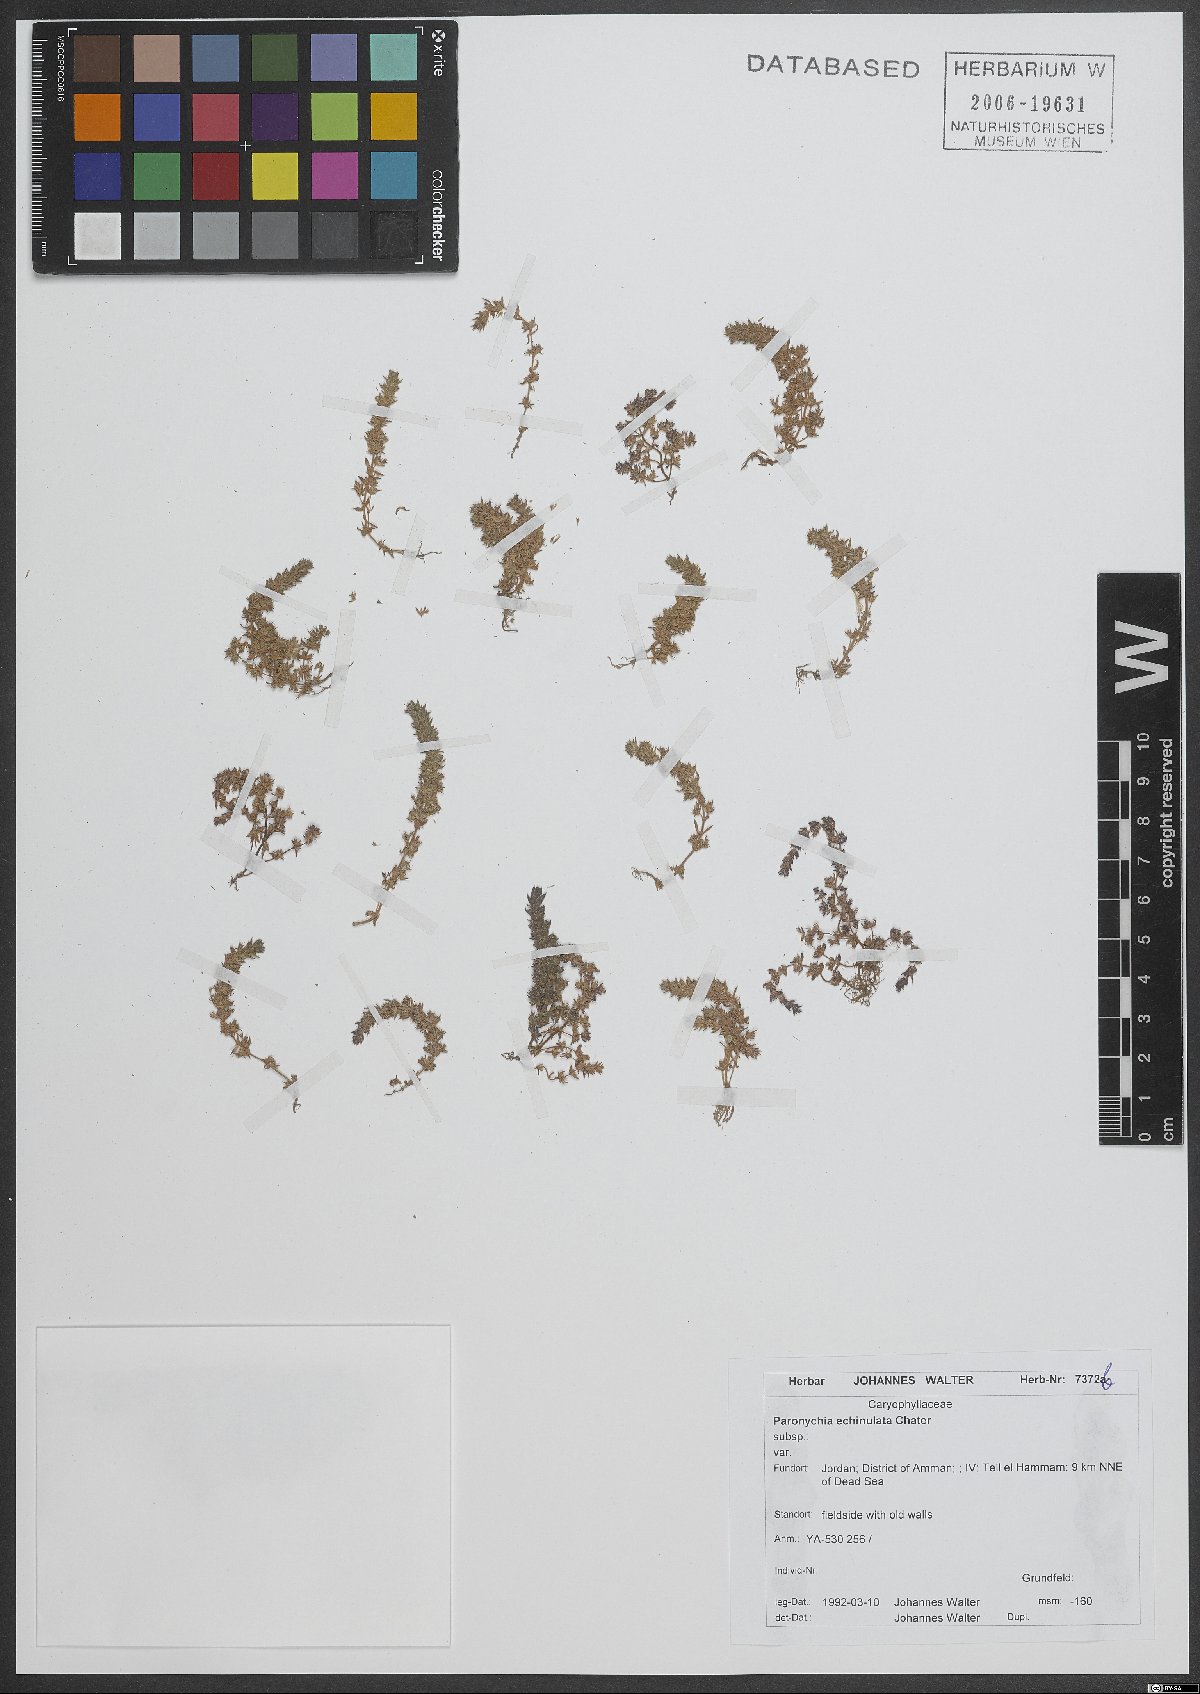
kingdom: Plantae
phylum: Tracheophyta
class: Magnoliopsida
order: Caryophyllales
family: Caryophyllaceae
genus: Paronychia
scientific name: Paronychia echinulata
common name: Eurasian nailwort
